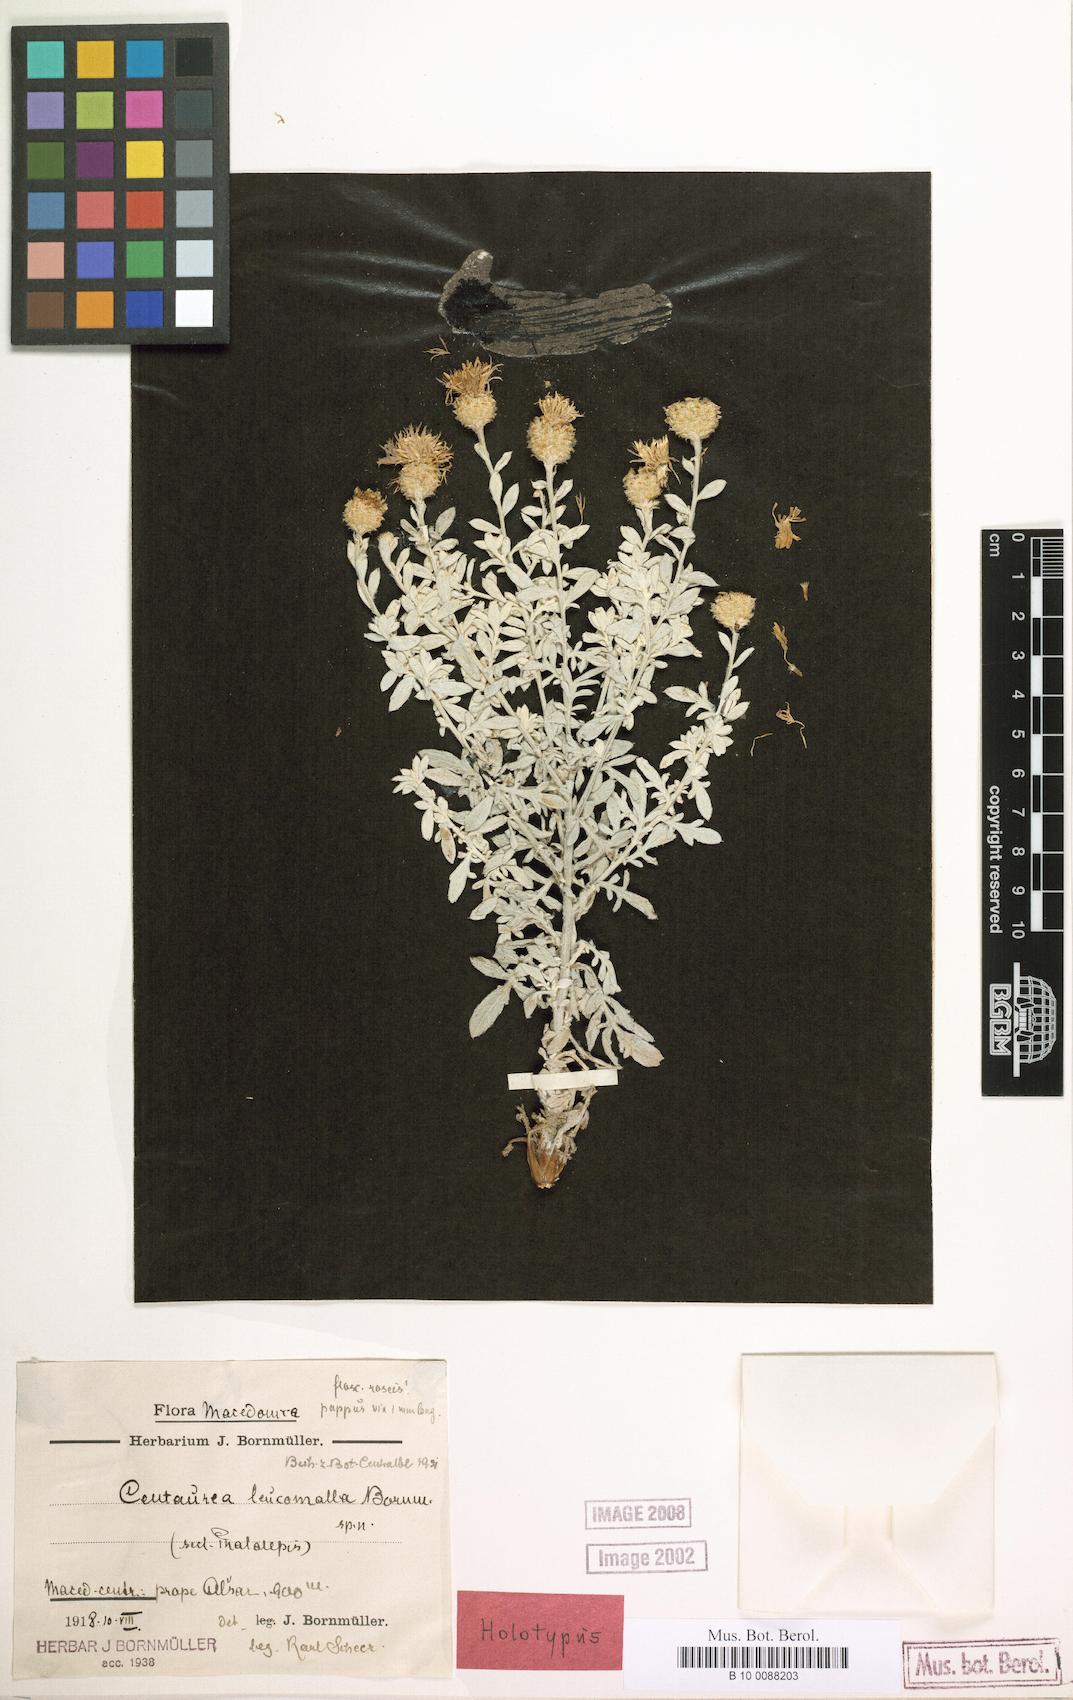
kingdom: Plantae
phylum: Tracheophyta
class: Magnoliopsida
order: Asterales
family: Asteraceae
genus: Centaurea
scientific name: Centaurea leucomalla
